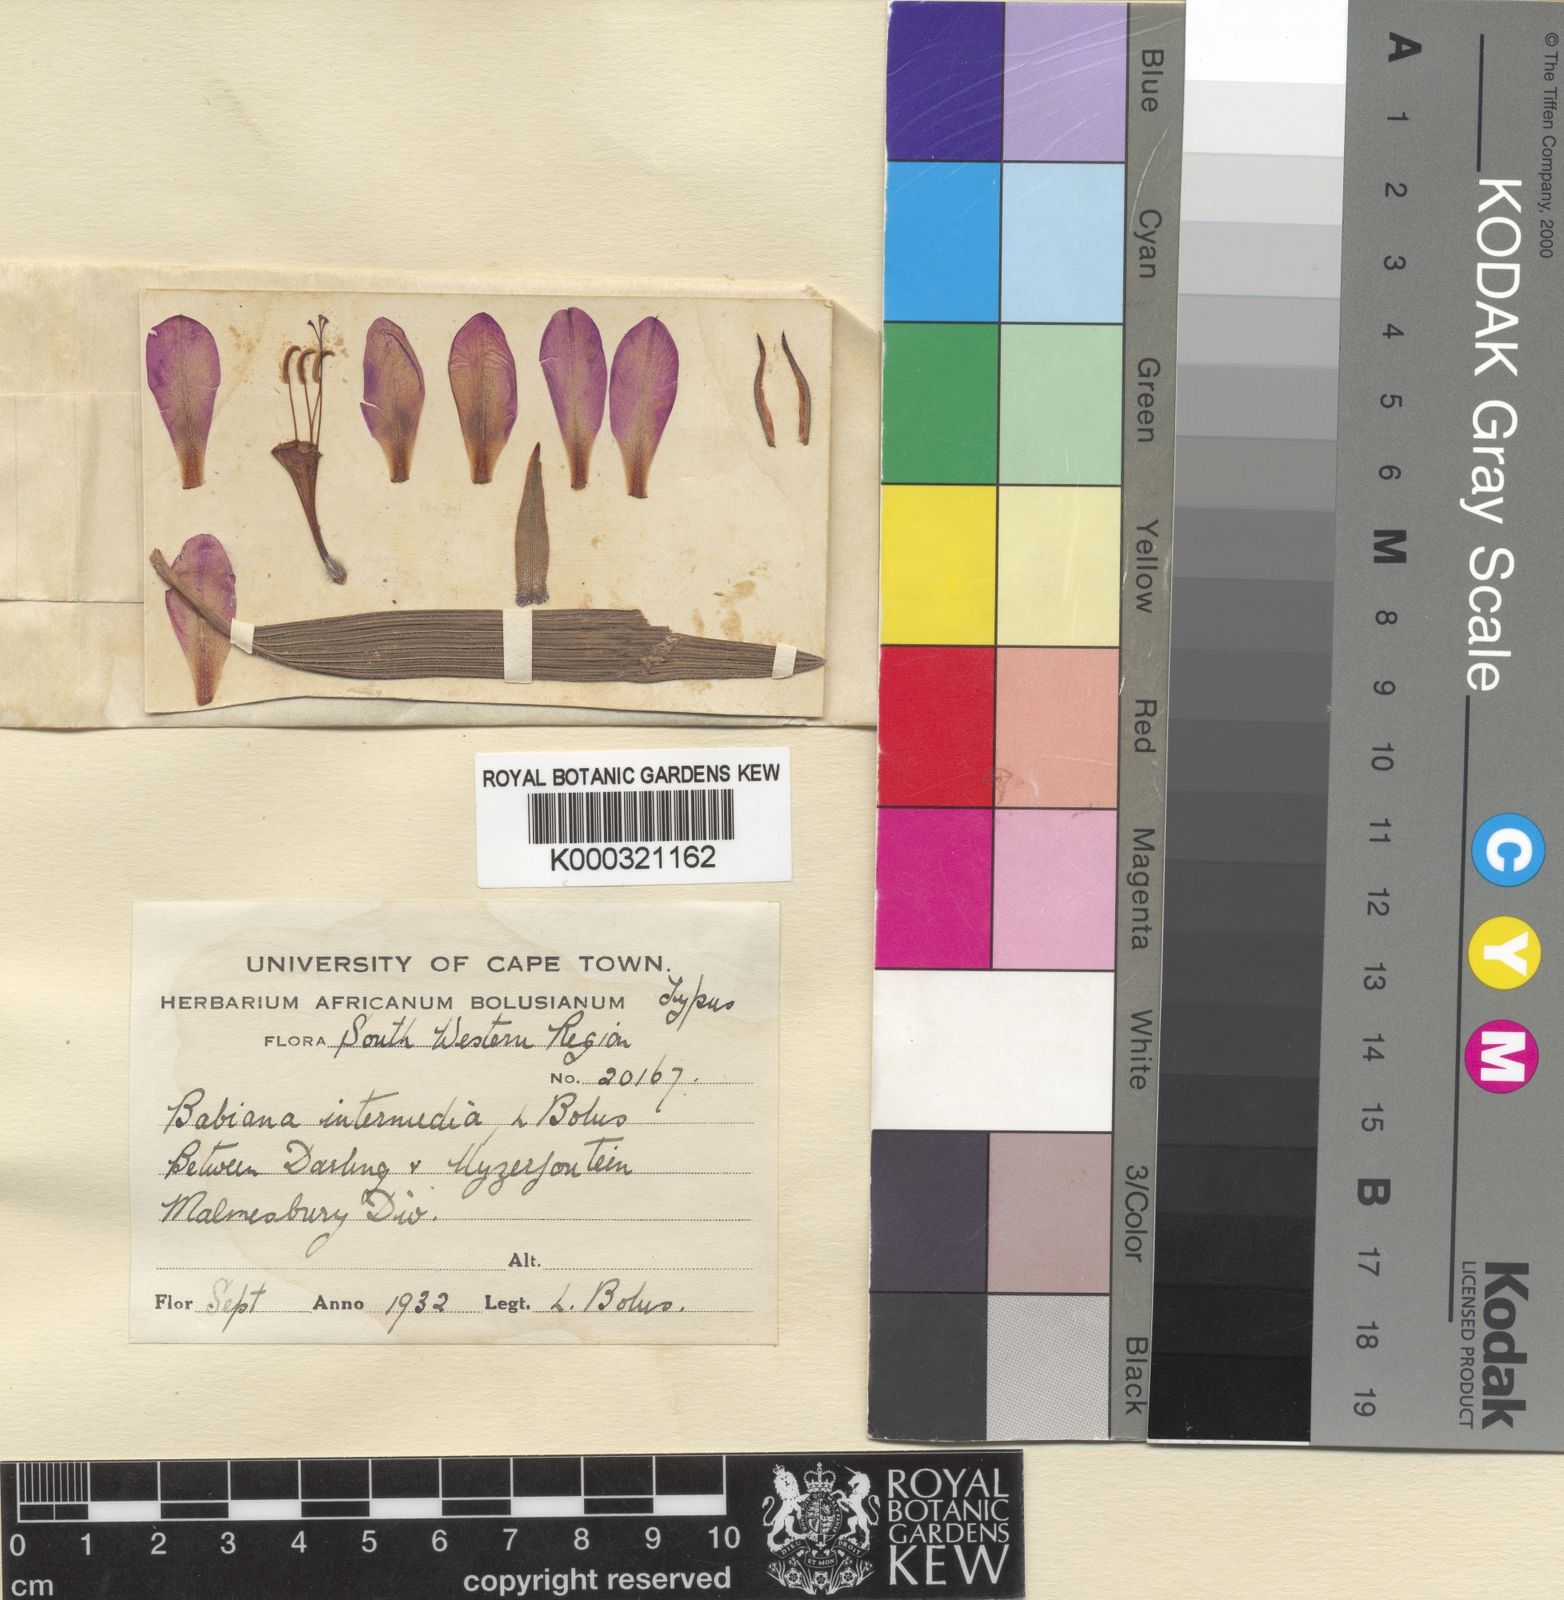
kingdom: Plantae
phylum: Tracheophyta
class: Liliopsida
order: Asparagales
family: Iridaceae
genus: Babiana
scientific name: Babiana angustifolia
